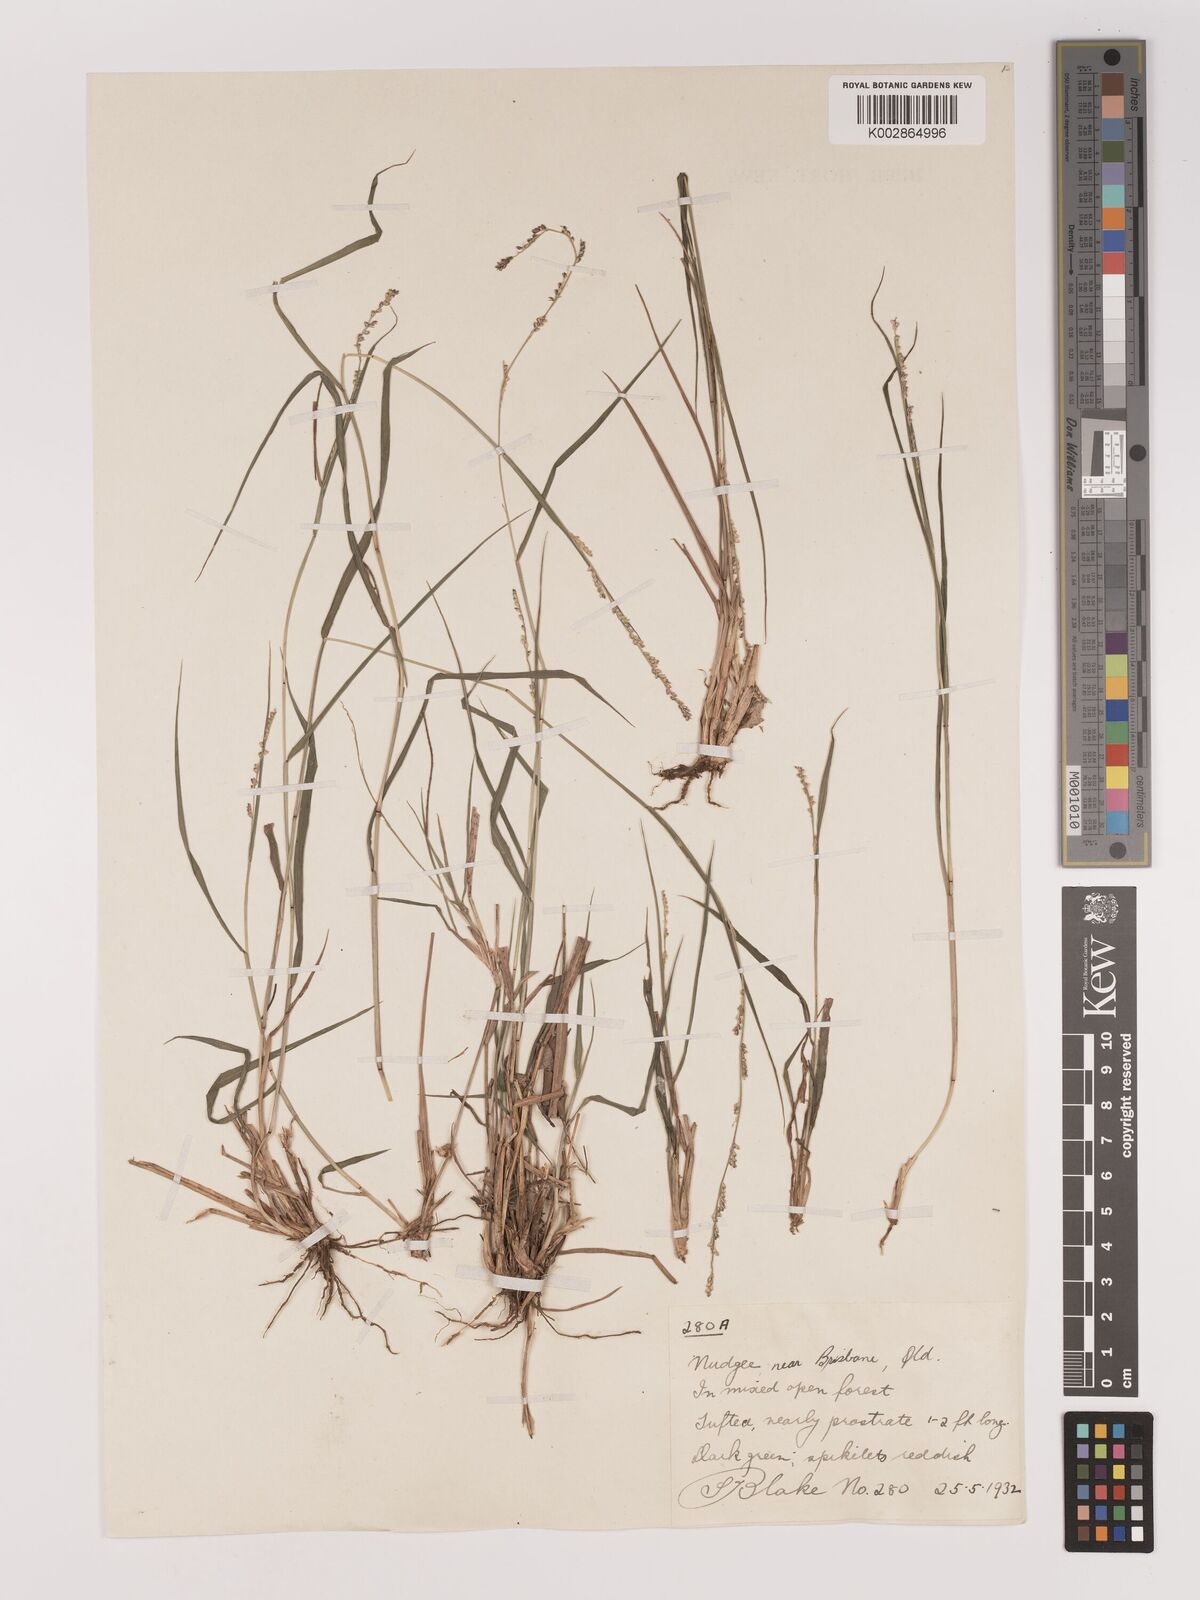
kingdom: Plantae
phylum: Tracheophyta
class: Liliopsida
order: Poales
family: Poaceae
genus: Setaria
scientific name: Setaria
